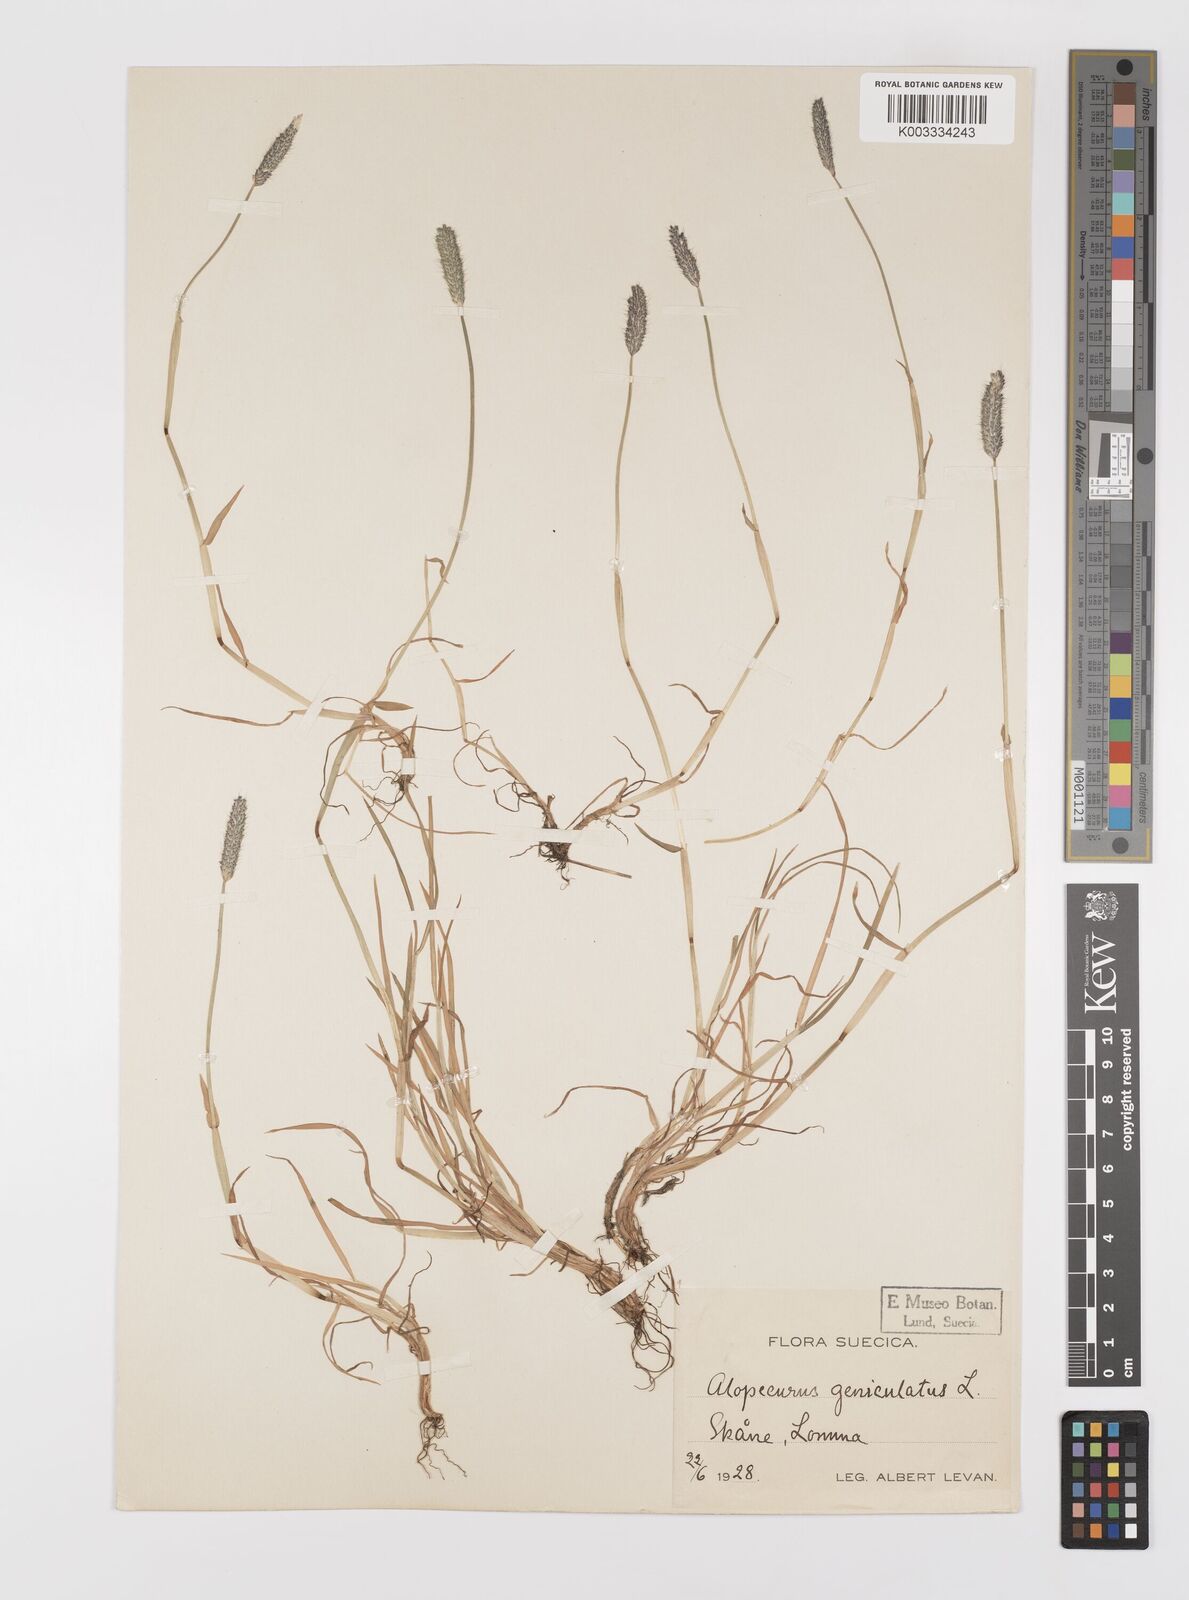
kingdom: Plantae
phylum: Tracheophyta
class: Liliopsida
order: Poales
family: Poaceae
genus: Alopecurus
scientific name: Alopecurus geniculatus
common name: Water foxtail
